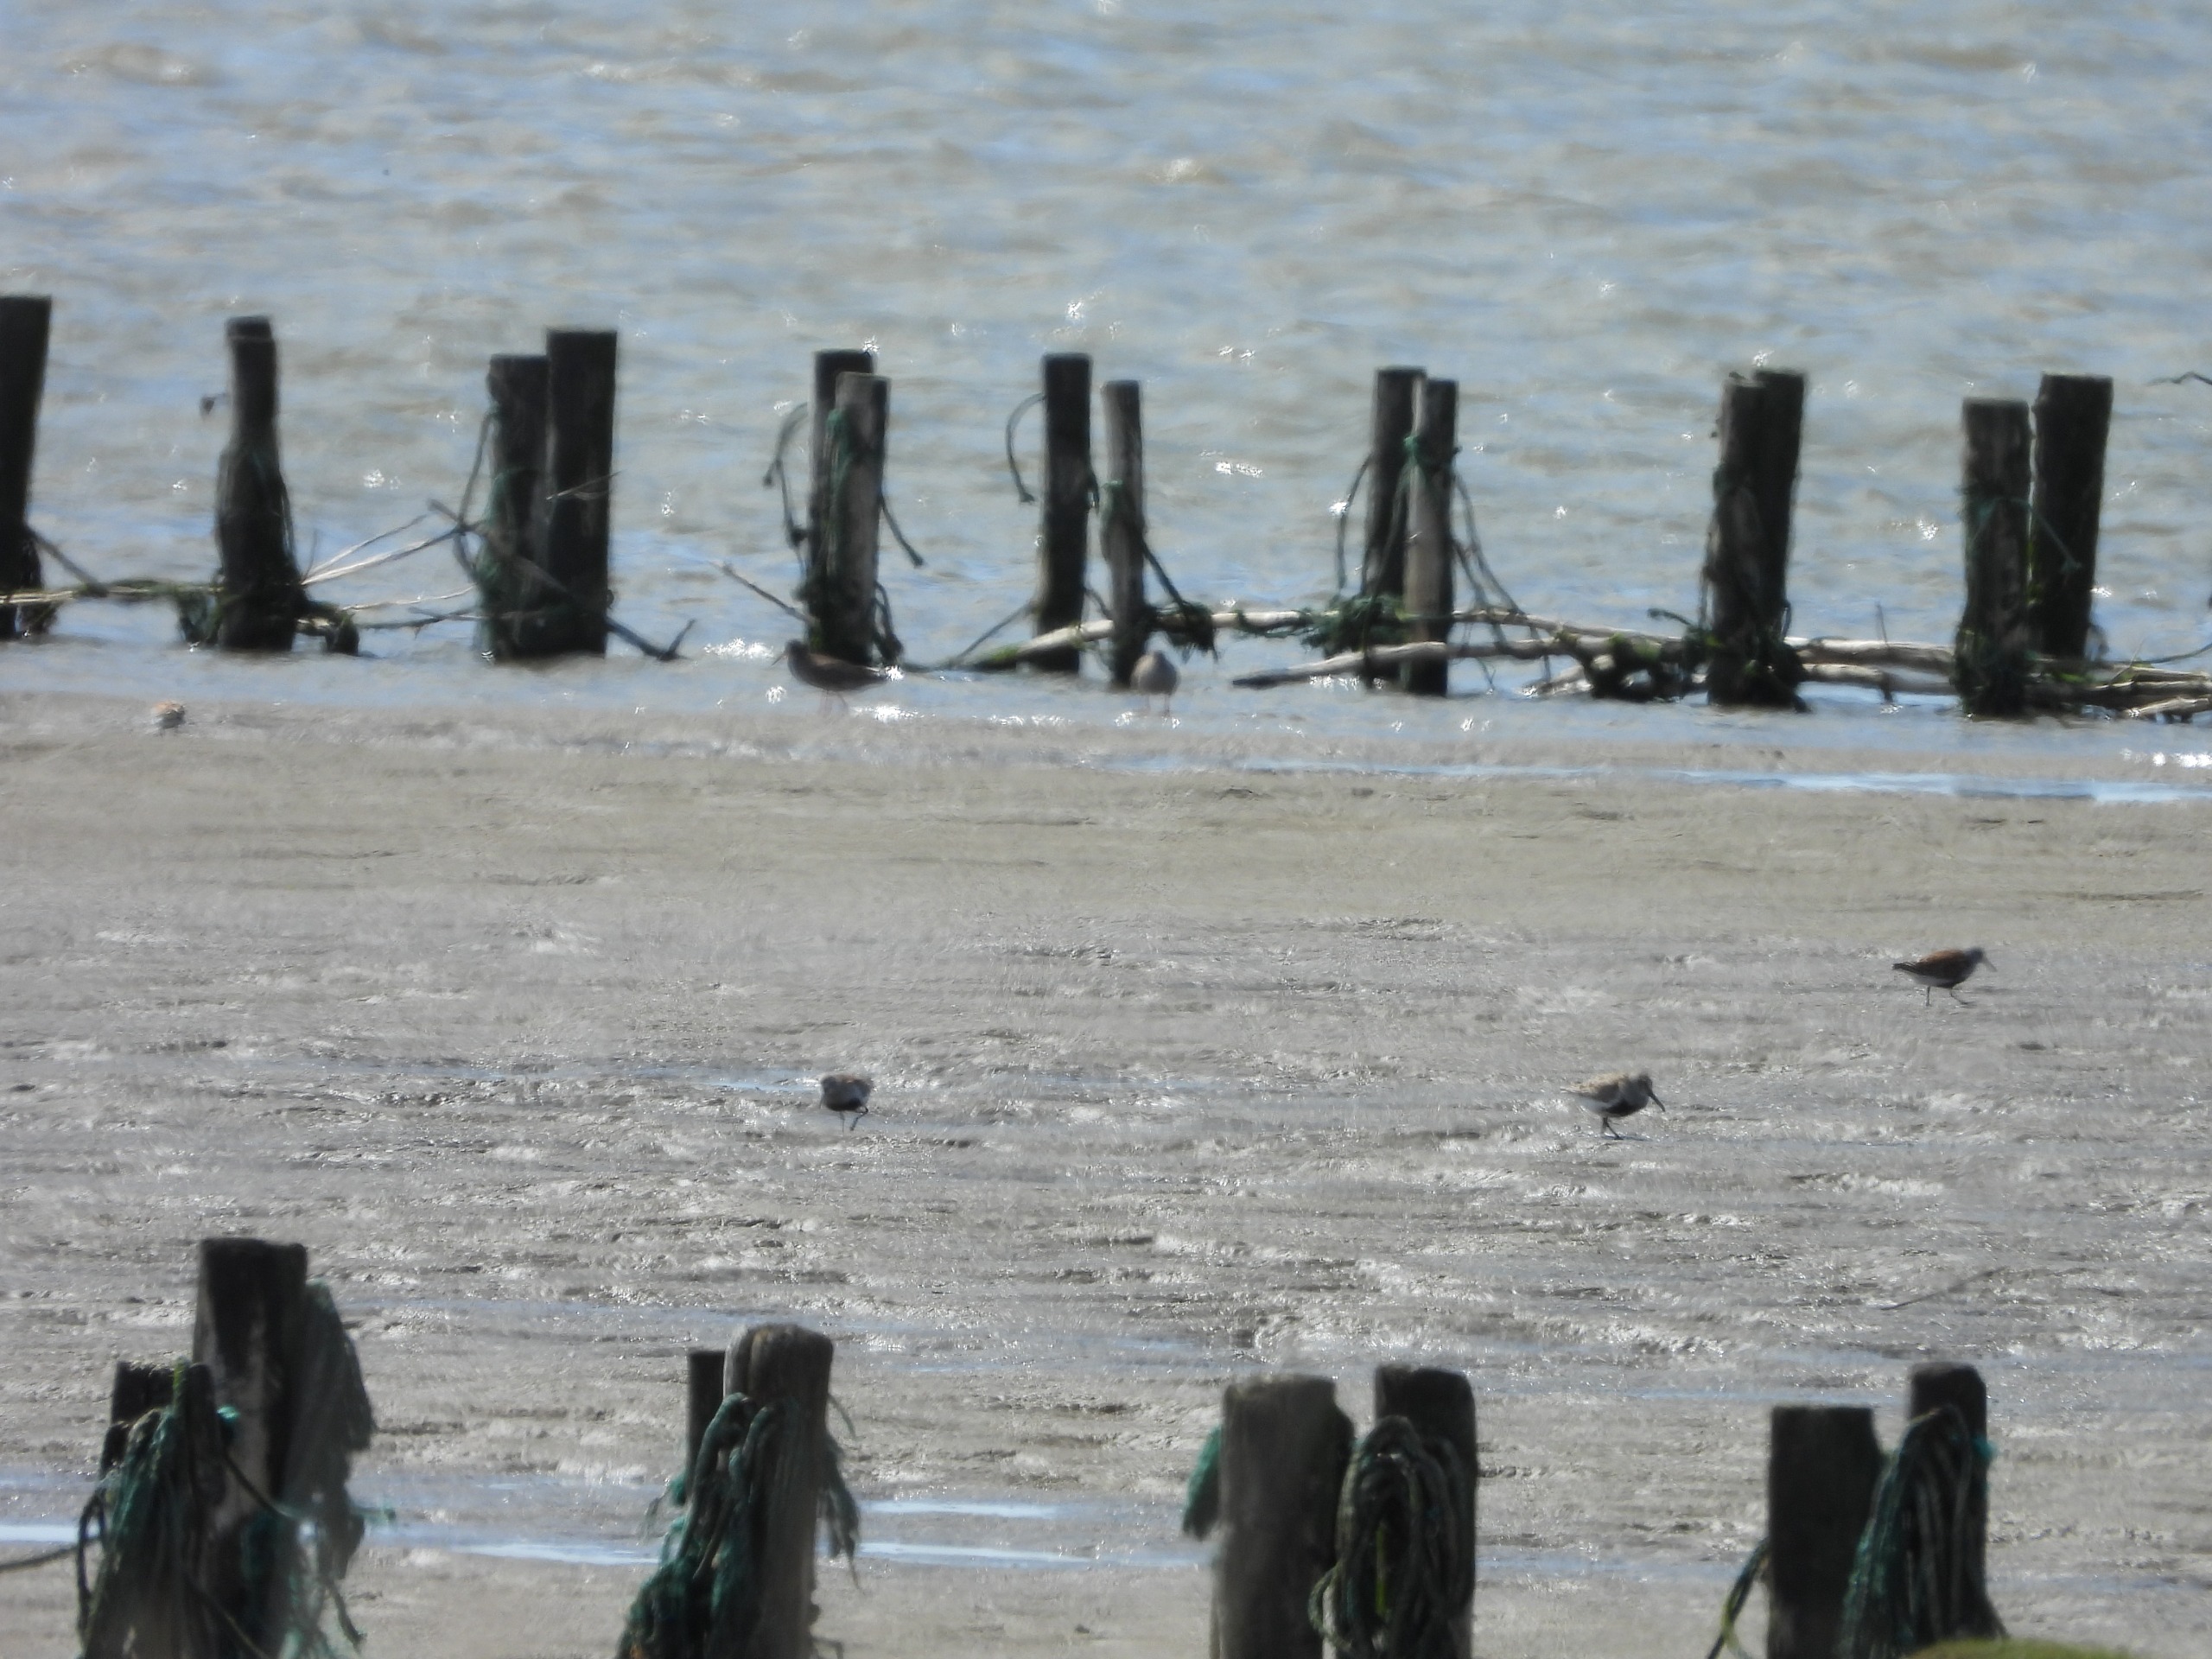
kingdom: Animalia
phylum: Chordata
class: Aves
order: Charadriiformes
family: Scolopacidae
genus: Calidris
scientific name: Calidris alpina
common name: Almindelig ryle
